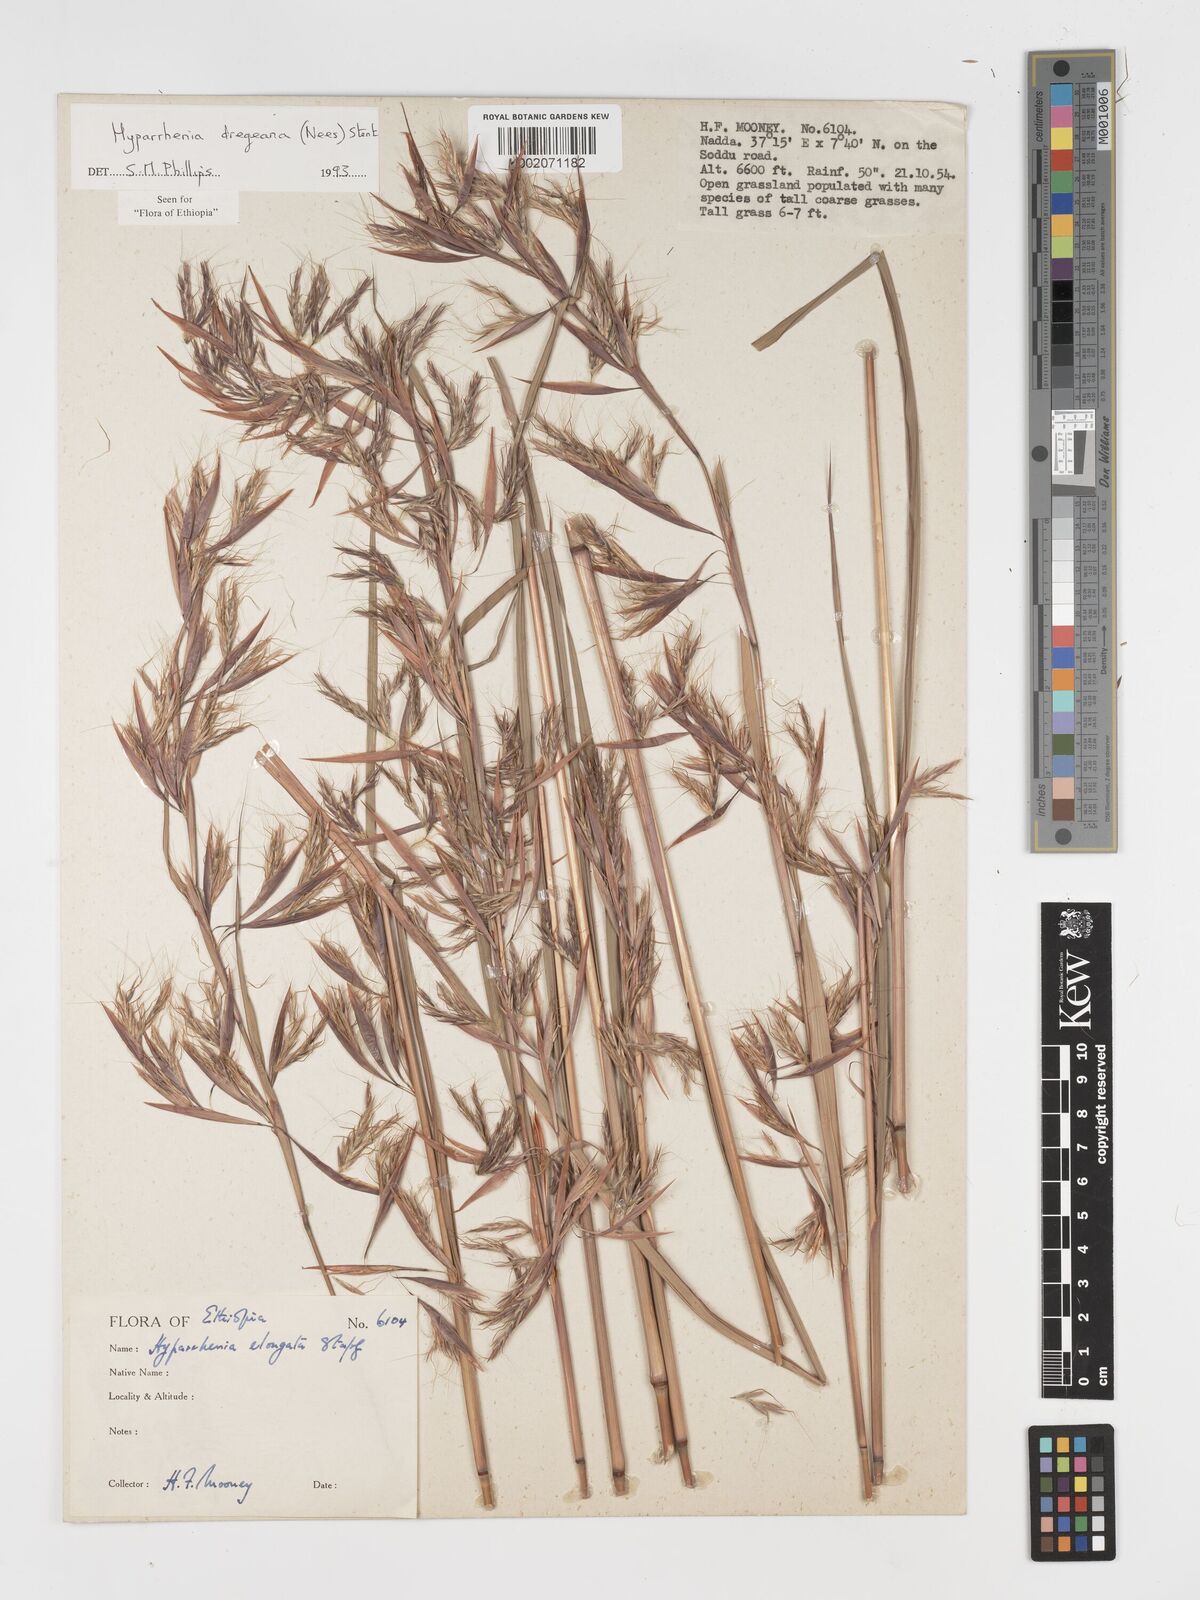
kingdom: Plantae
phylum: Tracheophyta
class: Liliopsida
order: Poales
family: Poaceae
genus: Hyparrhenia
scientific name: Hyparrhenia dregeana
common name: Silky thatching grass
